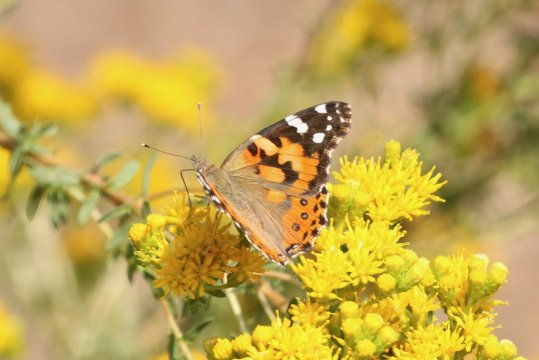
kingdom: Animalia
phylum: Arthropoda
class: Insecta
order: Lepidoptera
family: Nymphalidae
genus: Vanessa
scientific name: Vanessa cardui
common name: Painted Lady
